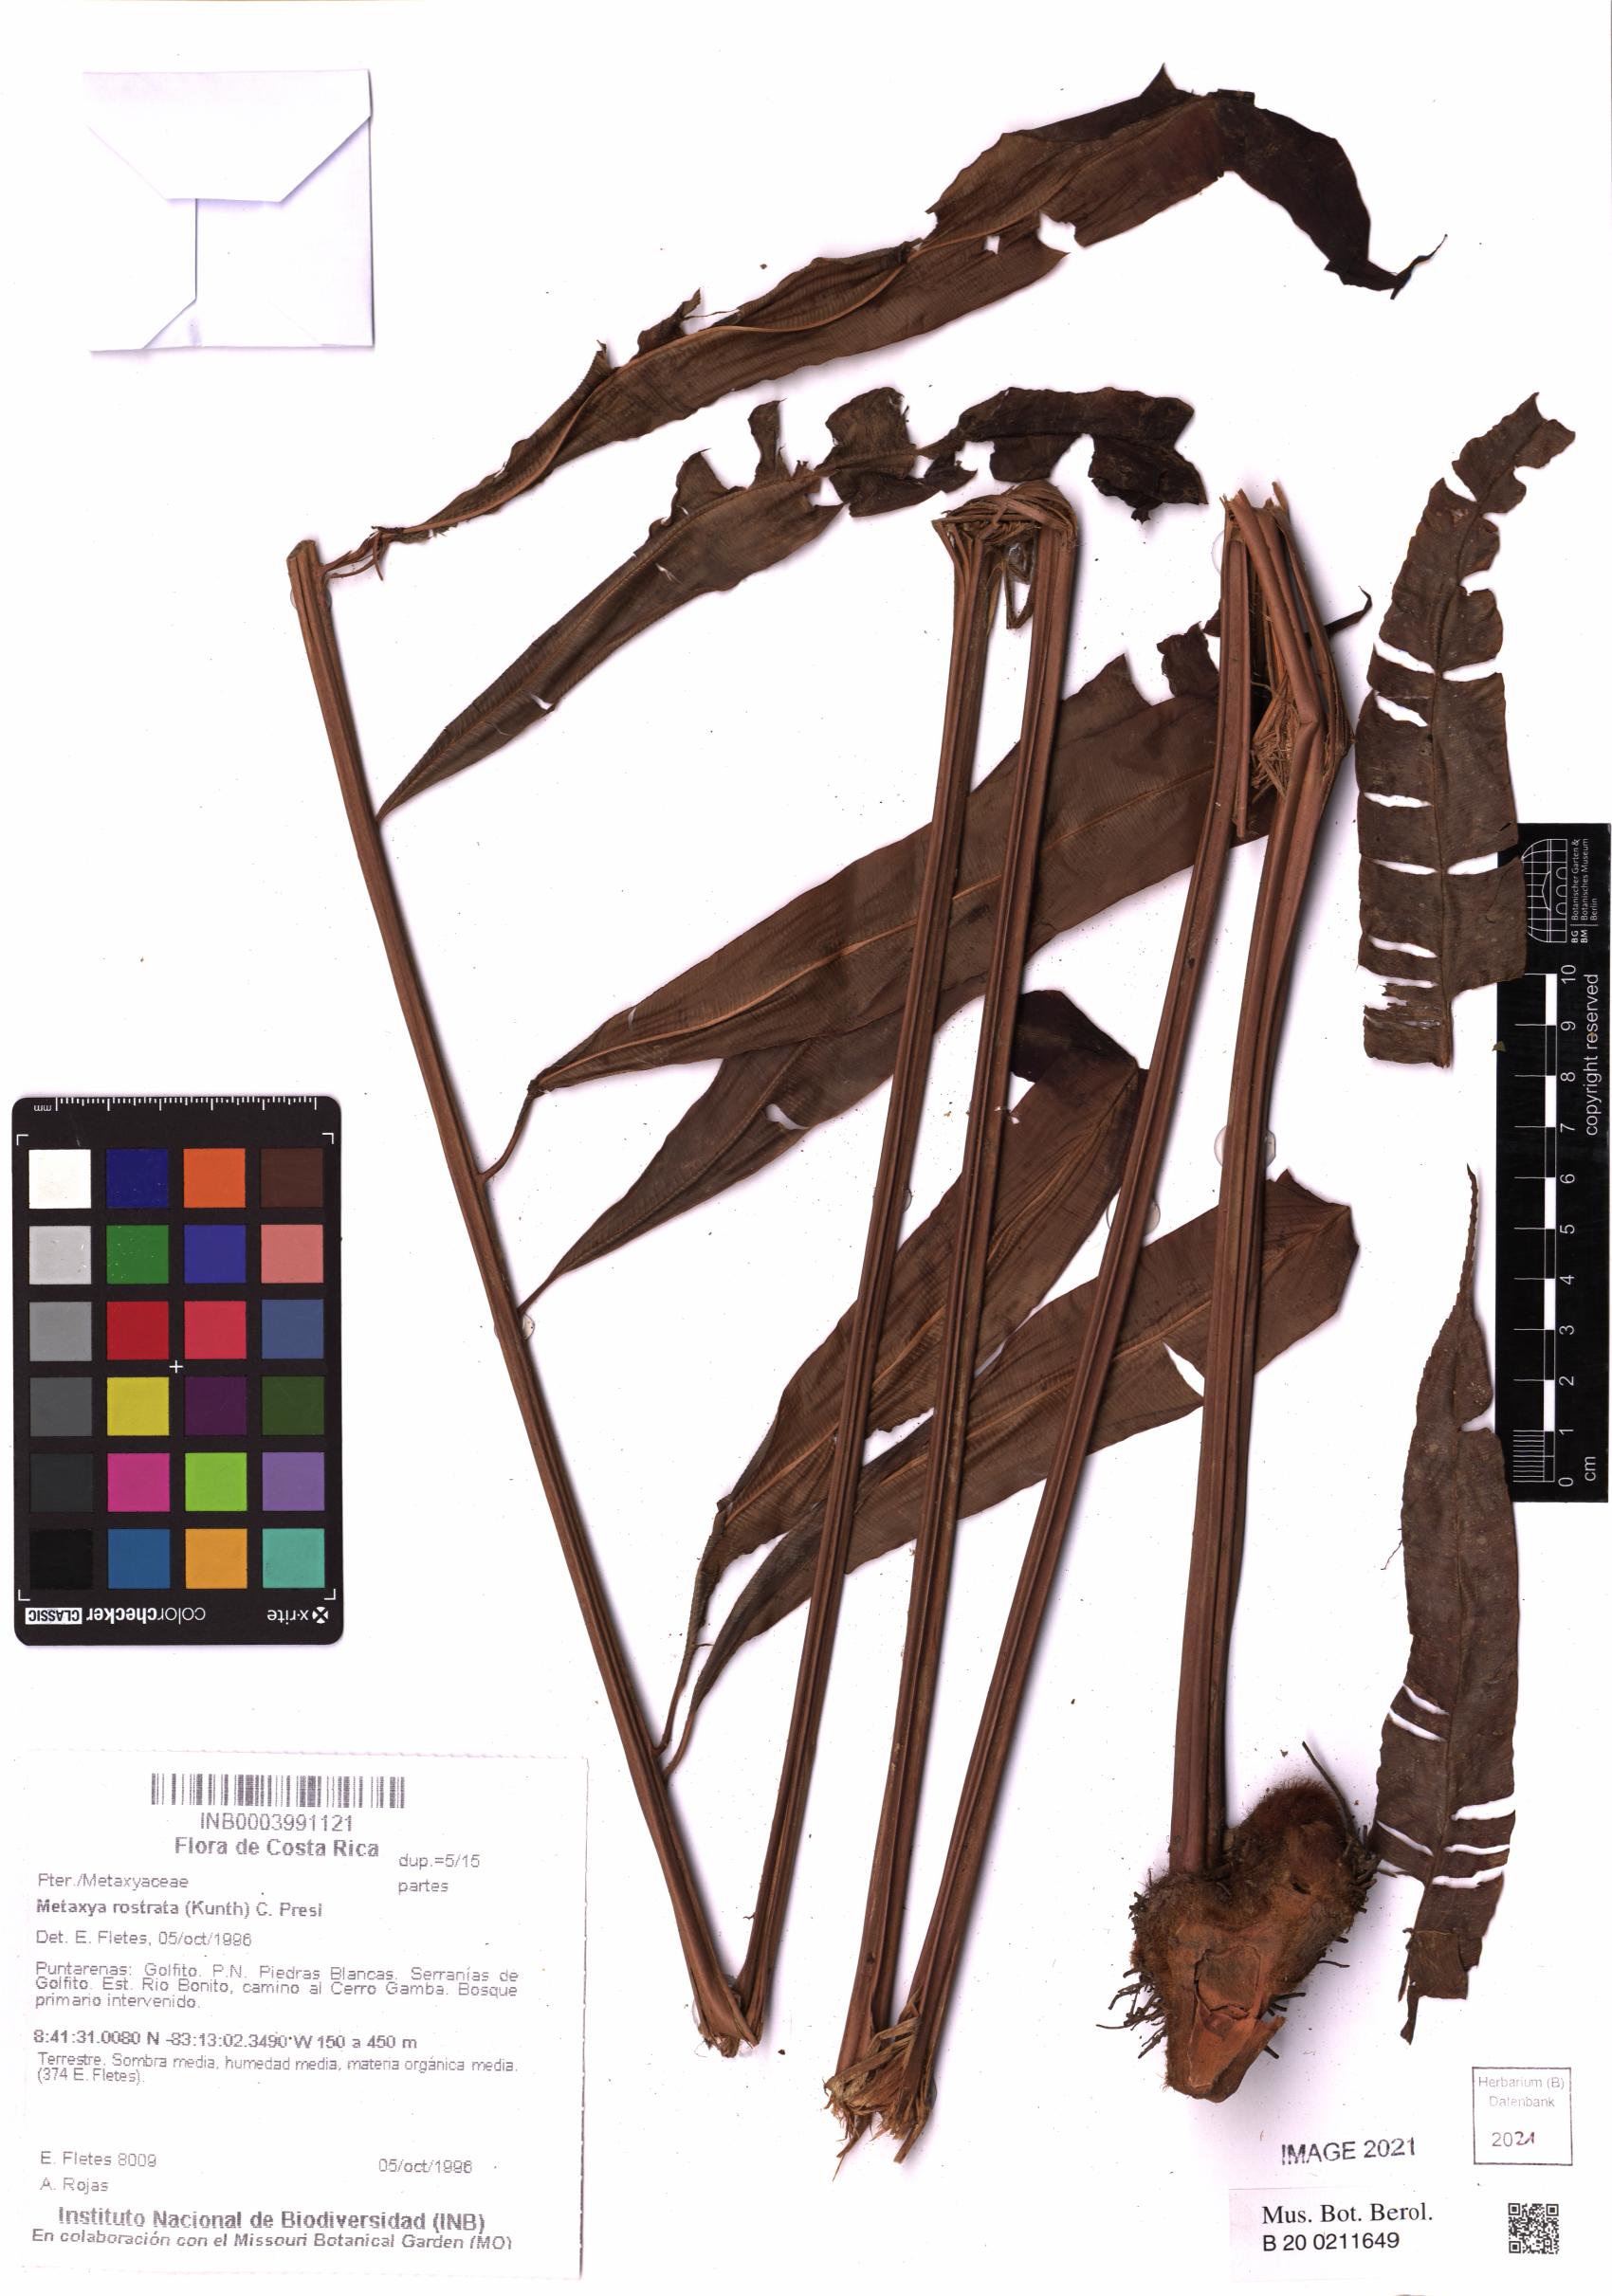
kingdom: Plantae
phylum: Tracheophyta
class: Polypodiopsida
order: Cyatheales
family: Metaxyaceae
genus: Metaxya
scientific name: Metaxya rostrata
